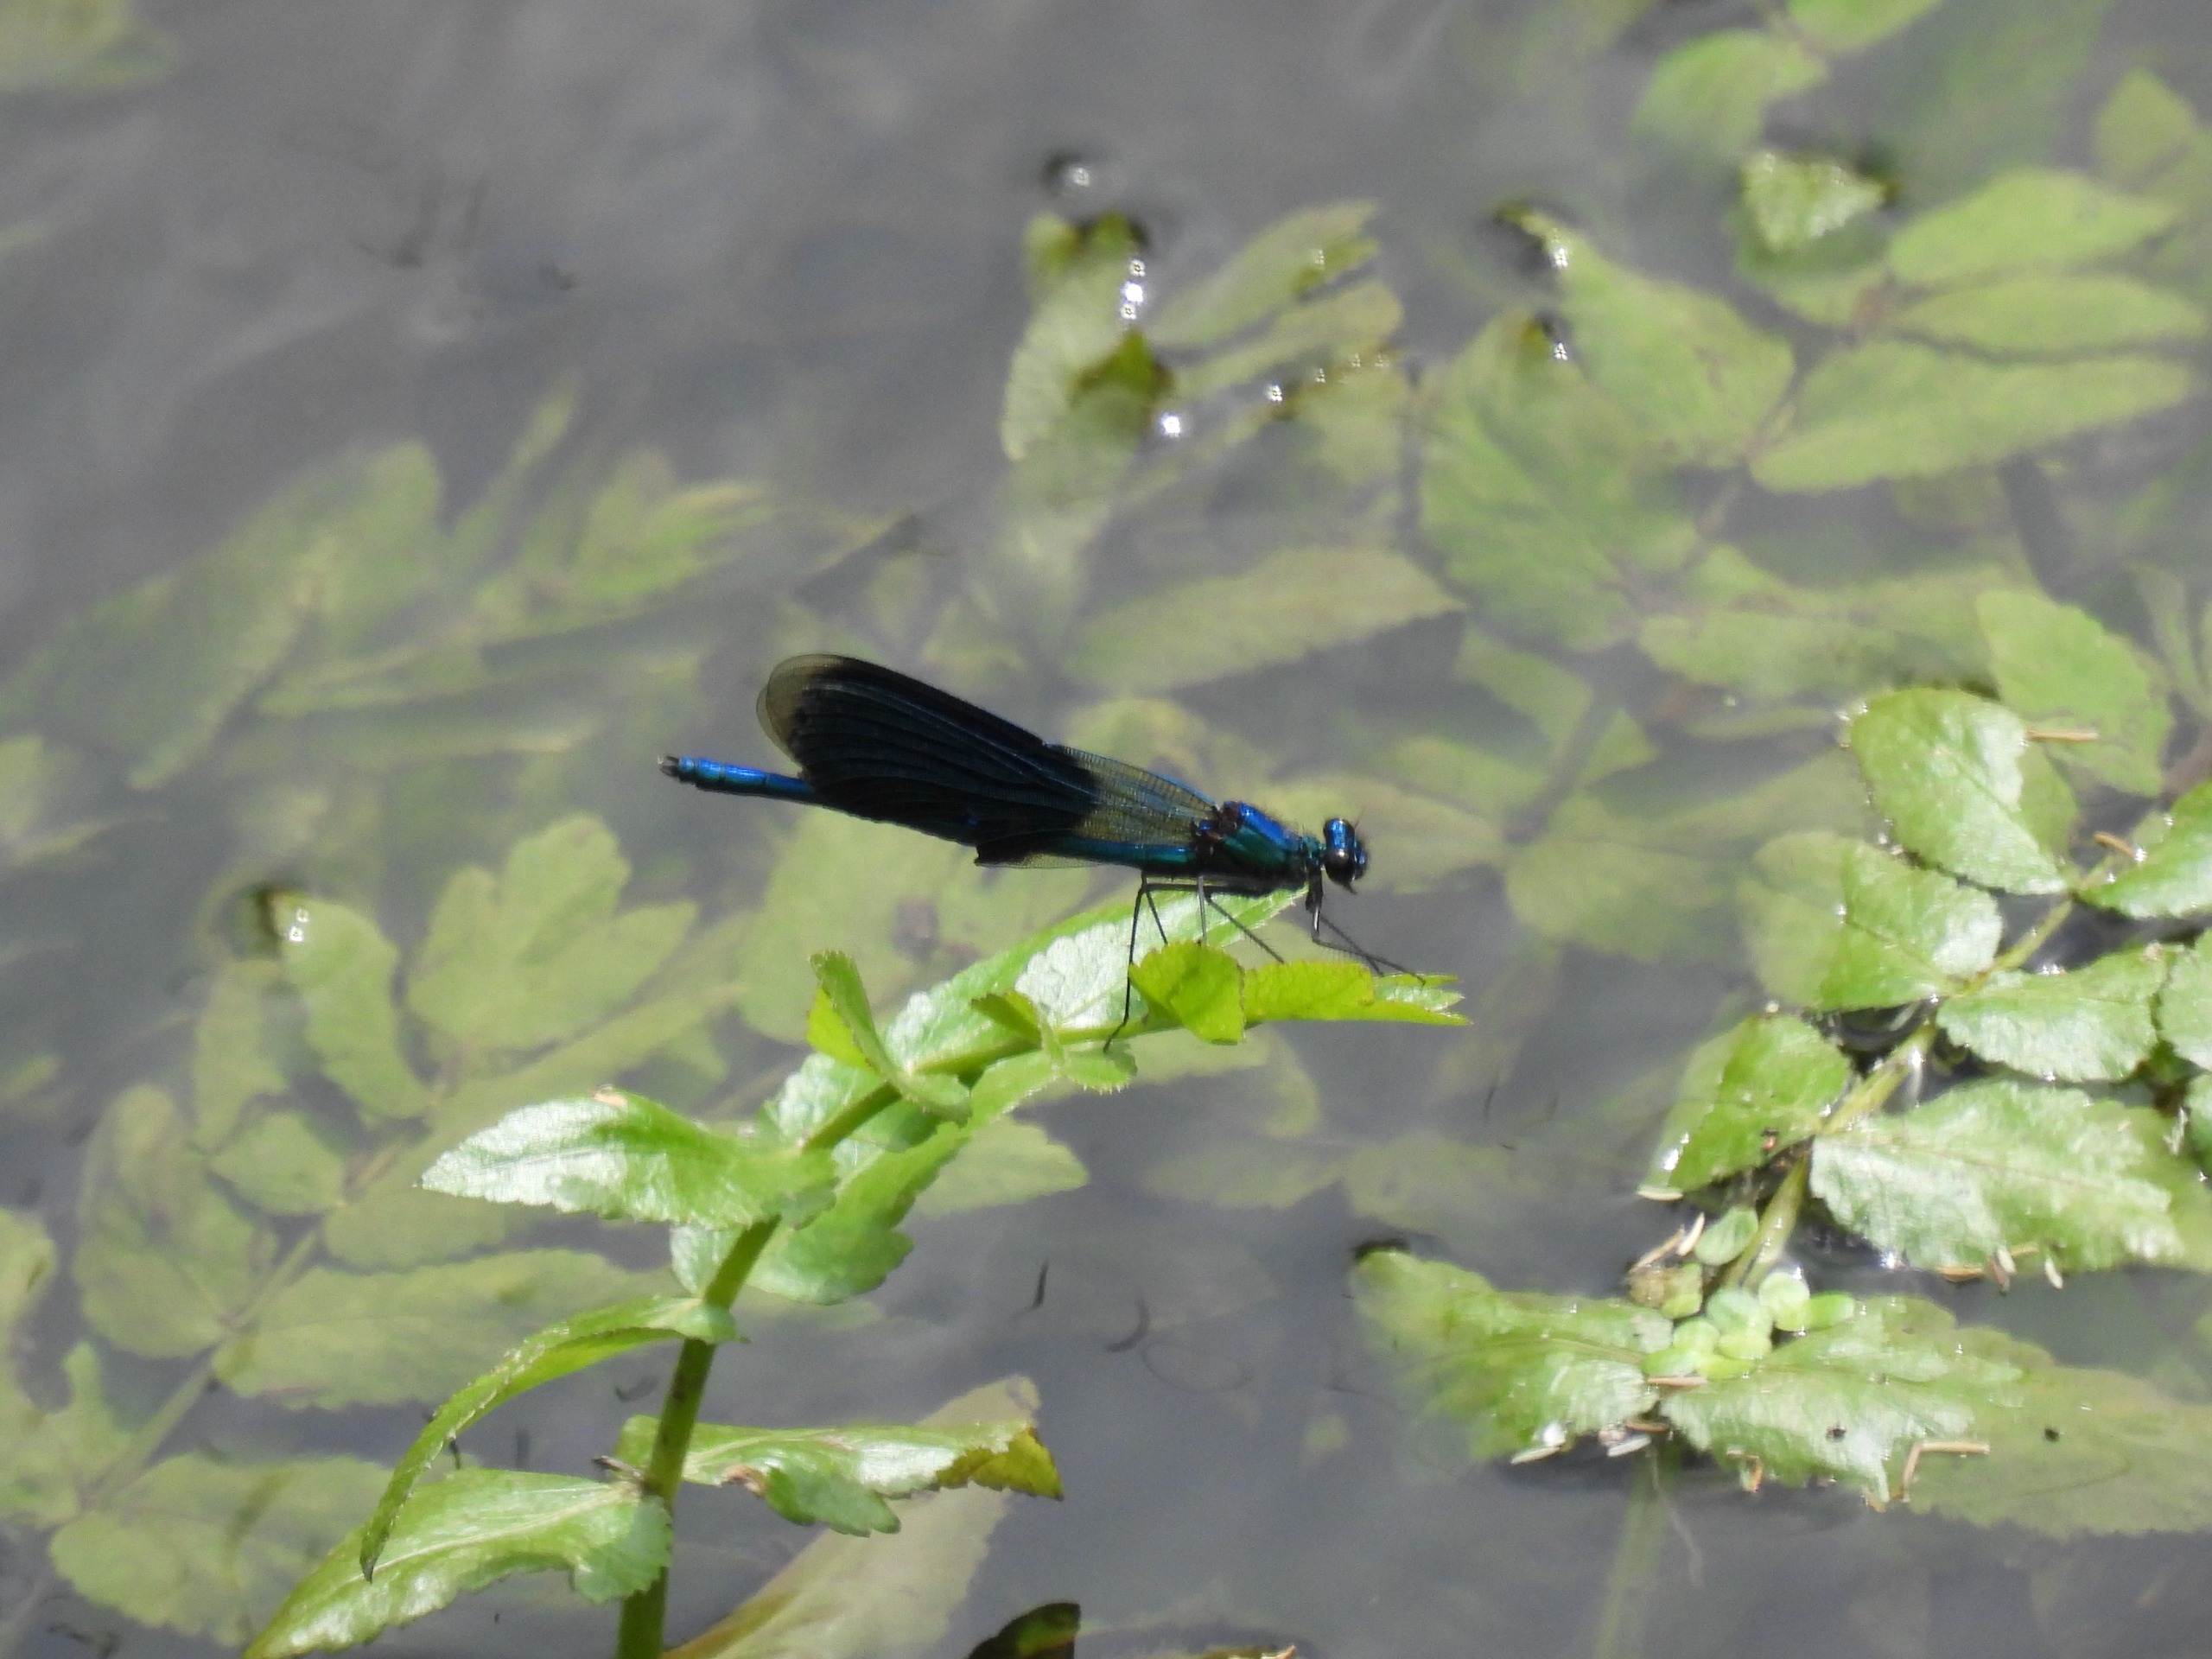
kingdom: Animalia
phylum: Arthropoda
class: Insecta
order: Odonata
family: Calopterygidae
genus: Calopteryx
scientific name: Calopteryx splendens
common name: Blåbåndet pragtvandnymfe
